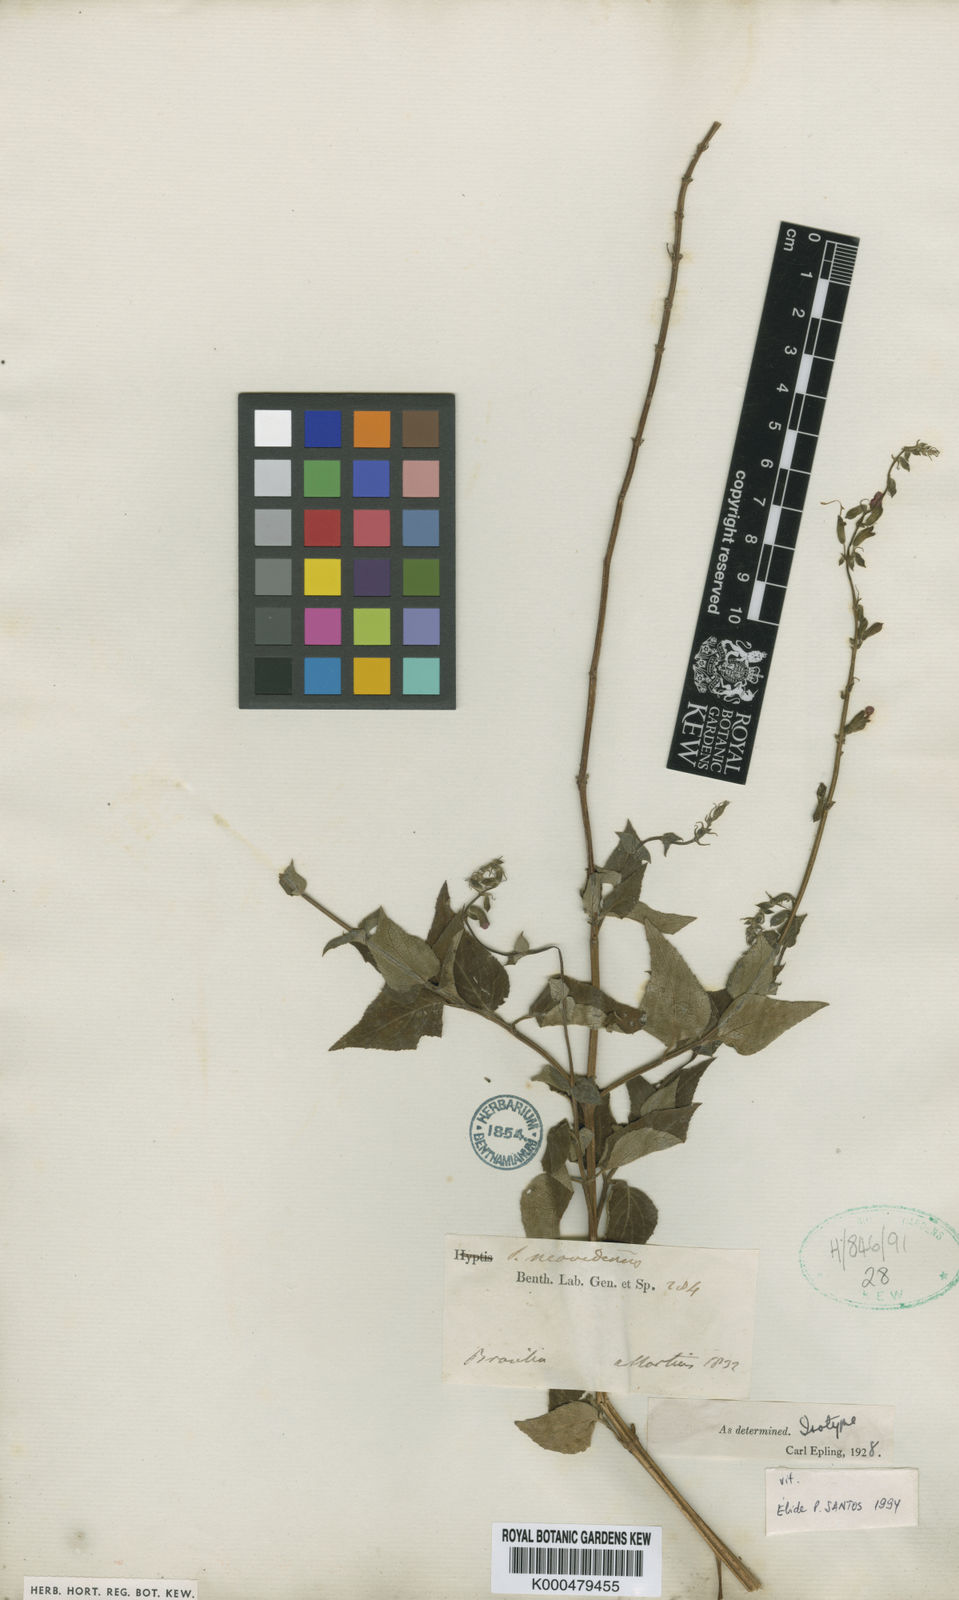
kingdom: Plantae
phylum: Tracheophyta
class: Magnoliopsida
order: Lamiales
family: Lamiaceae
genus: Salvia
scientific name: Salvia neovidensis
